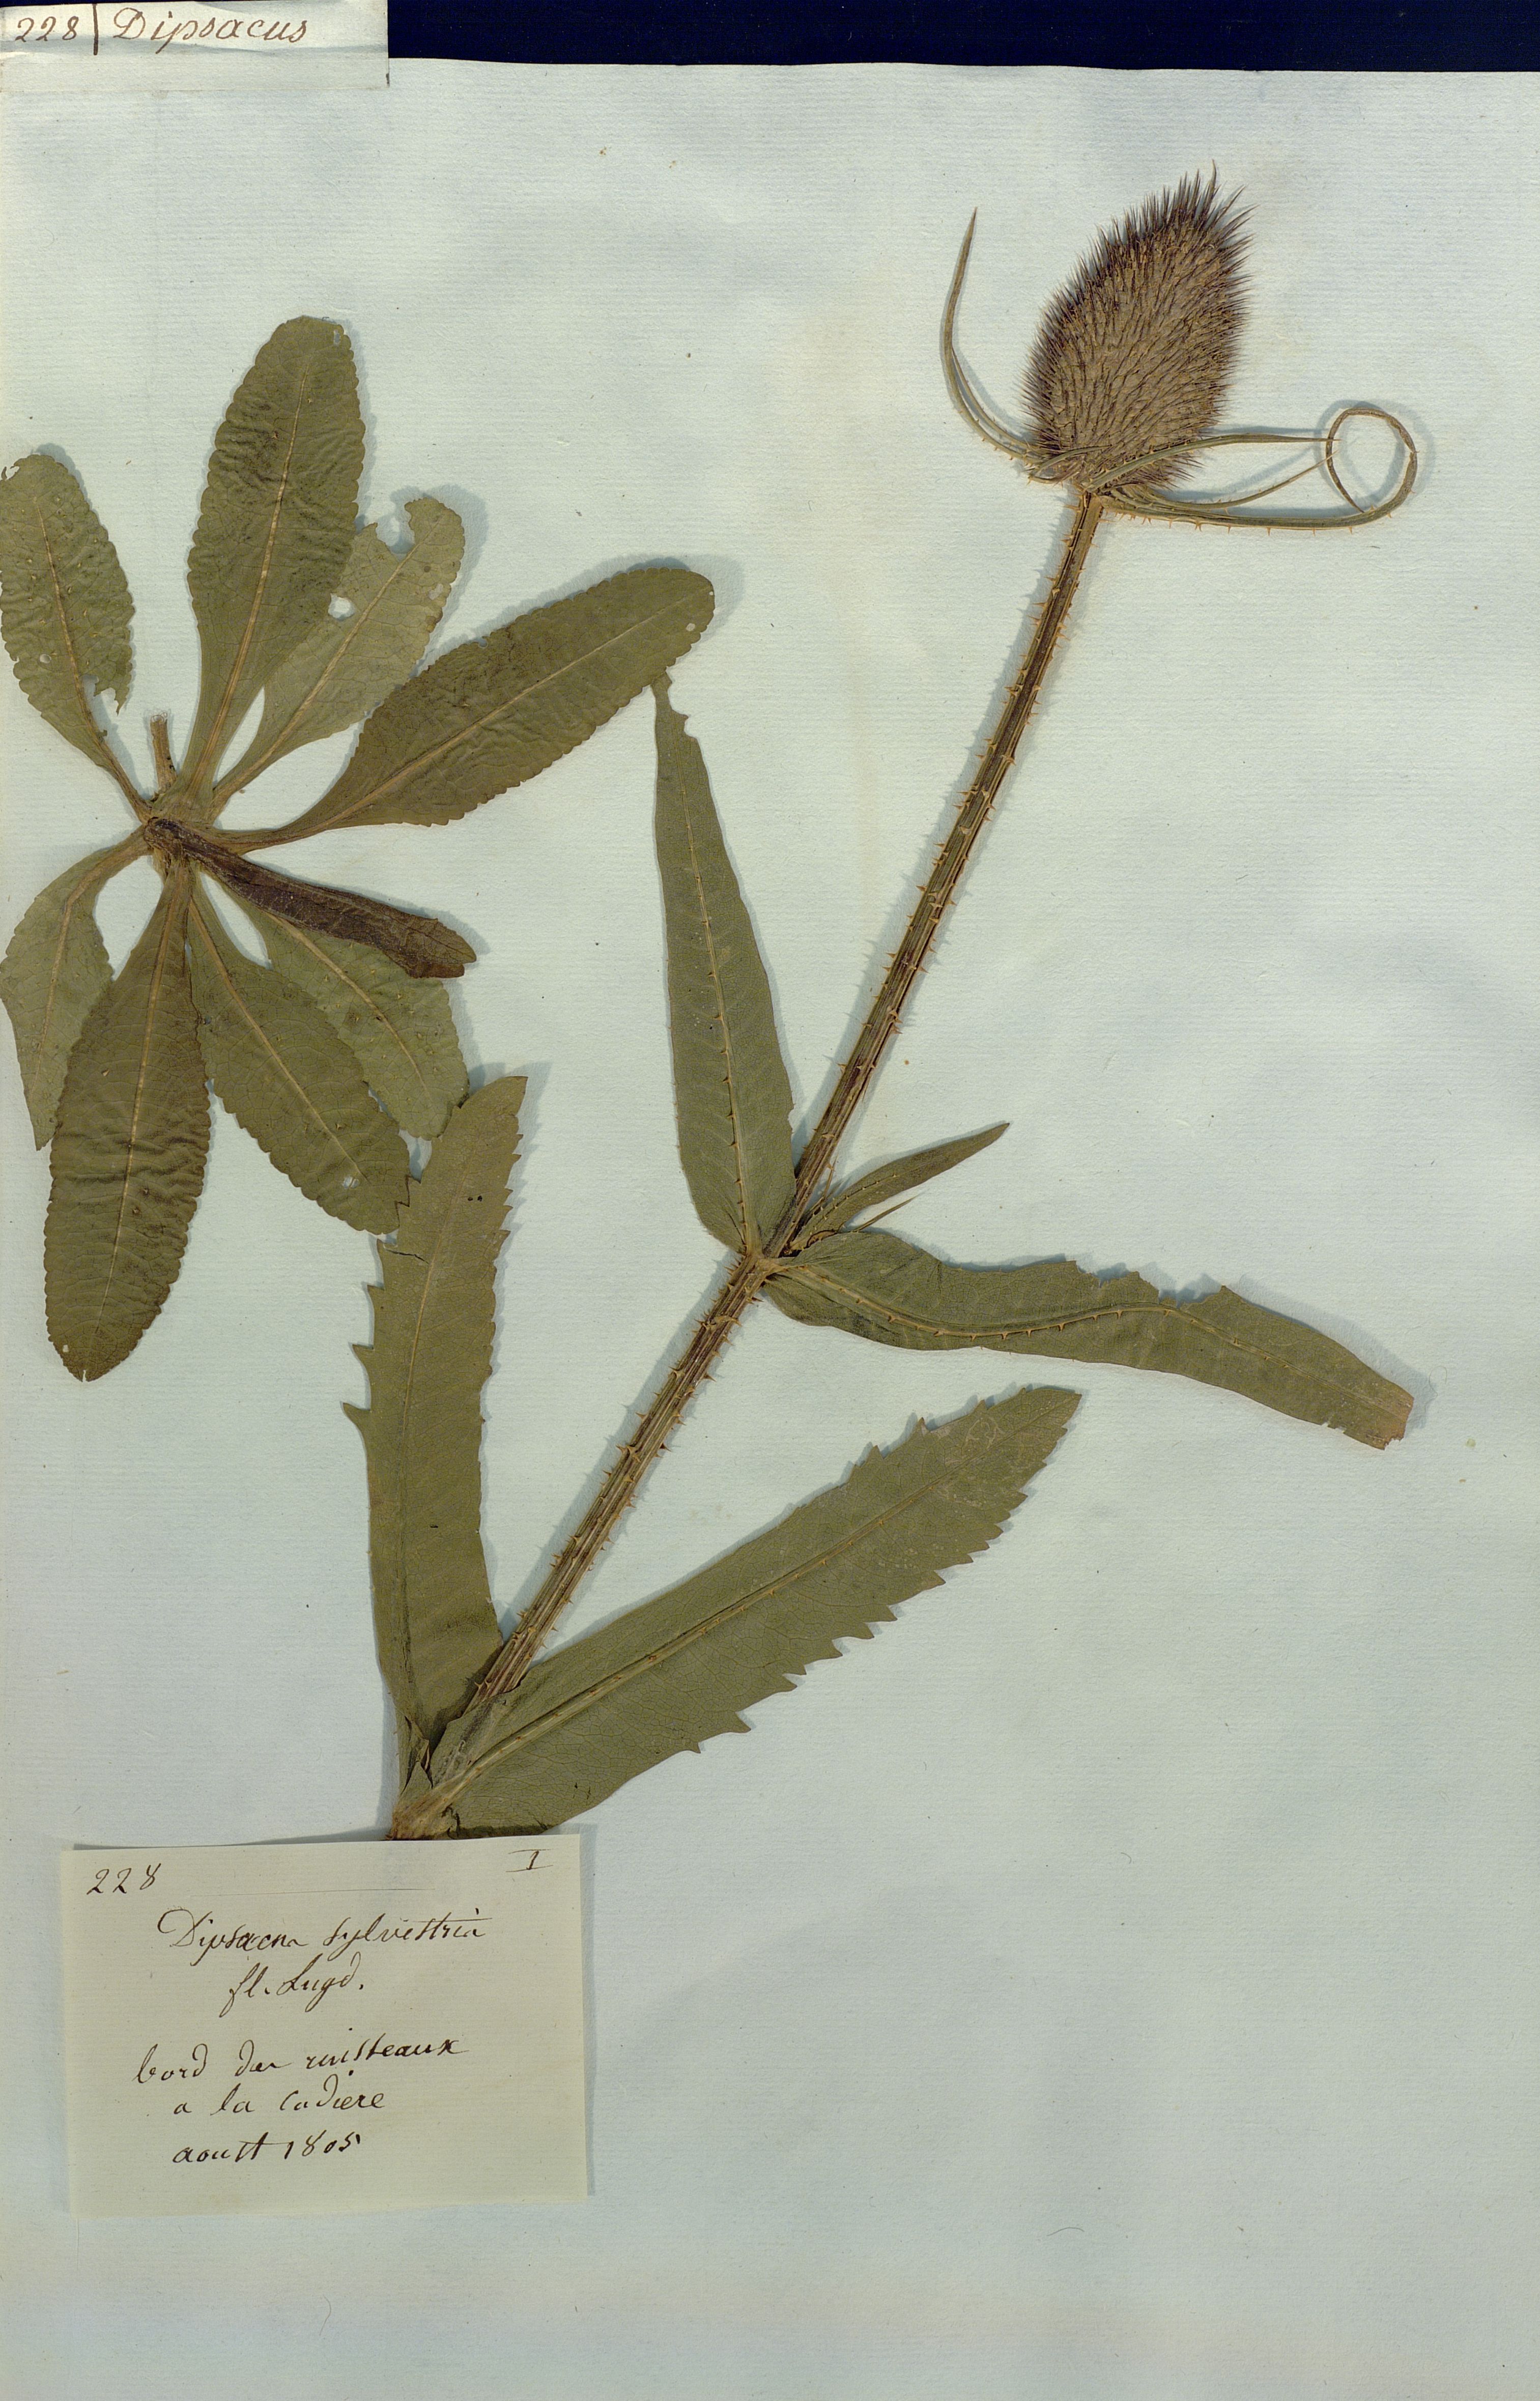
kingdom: Plantae
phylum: Tracheophyta
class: Magnoliopsida
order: Dipsacales
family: Caprifoliaceae
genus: Dipsacus
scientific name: Dipsacus sylvestris
